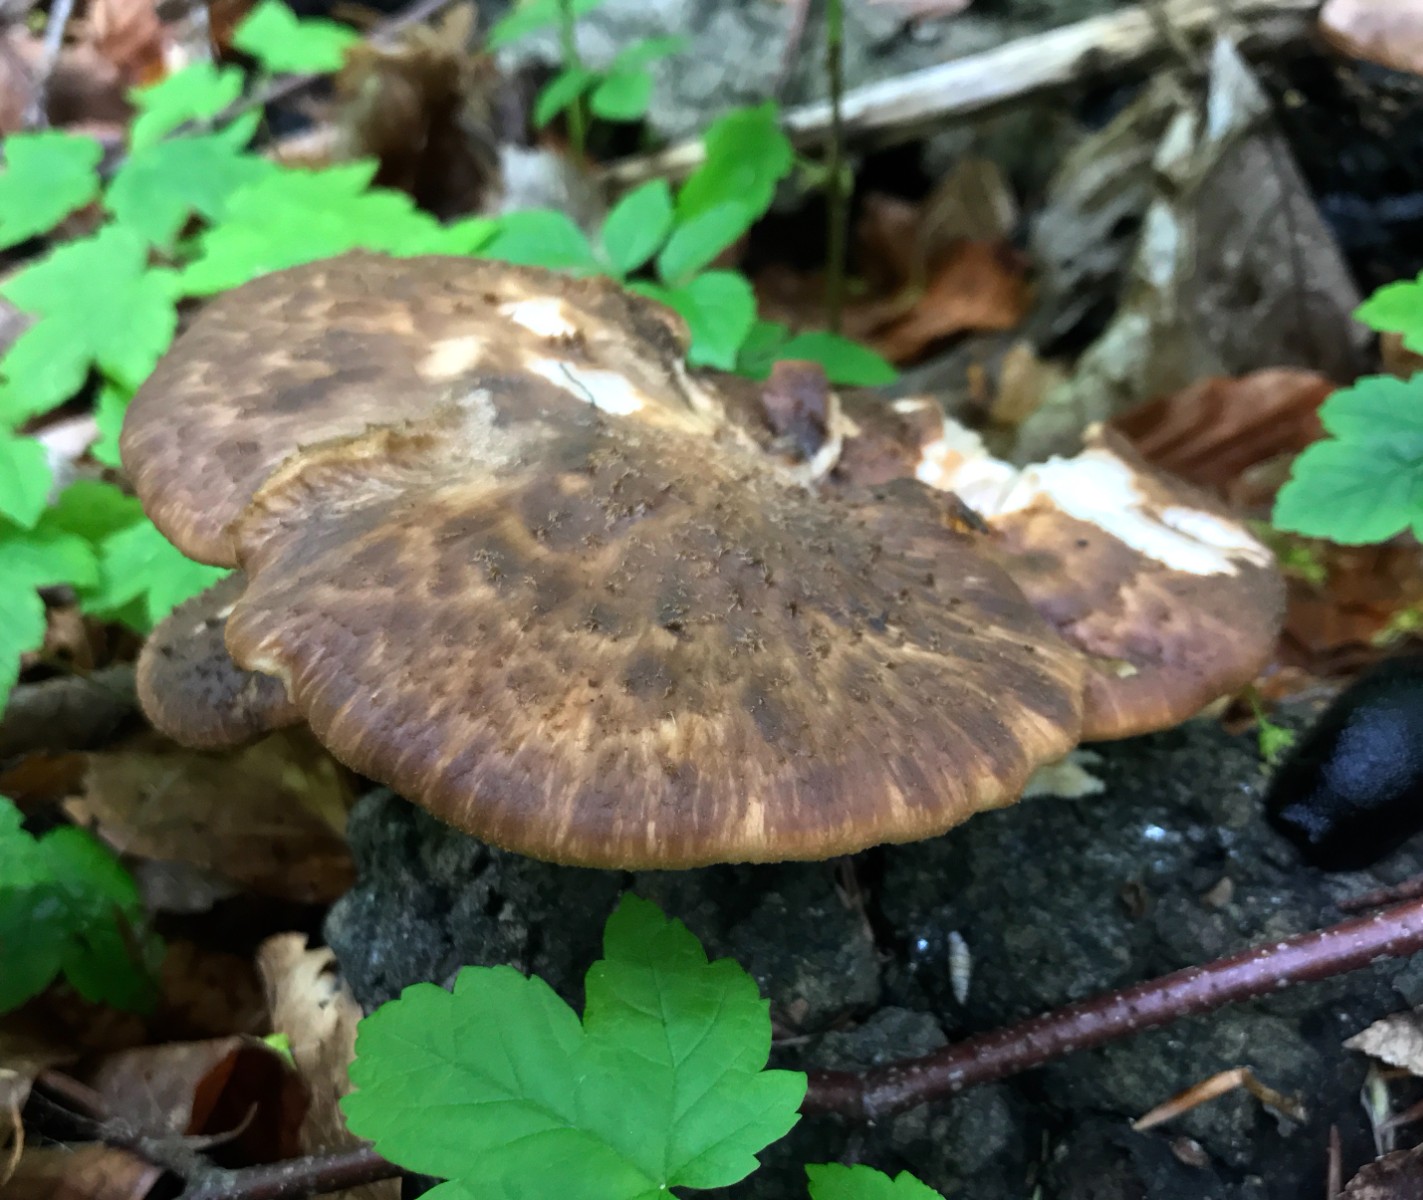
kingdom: Fungi
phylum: Basidiomycota
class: Agaricomycetes
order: Polyporales
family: Polyporaceae
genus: Cerioporus
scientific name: Cerioporus squamosus
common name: skællet stilkporesvamp
